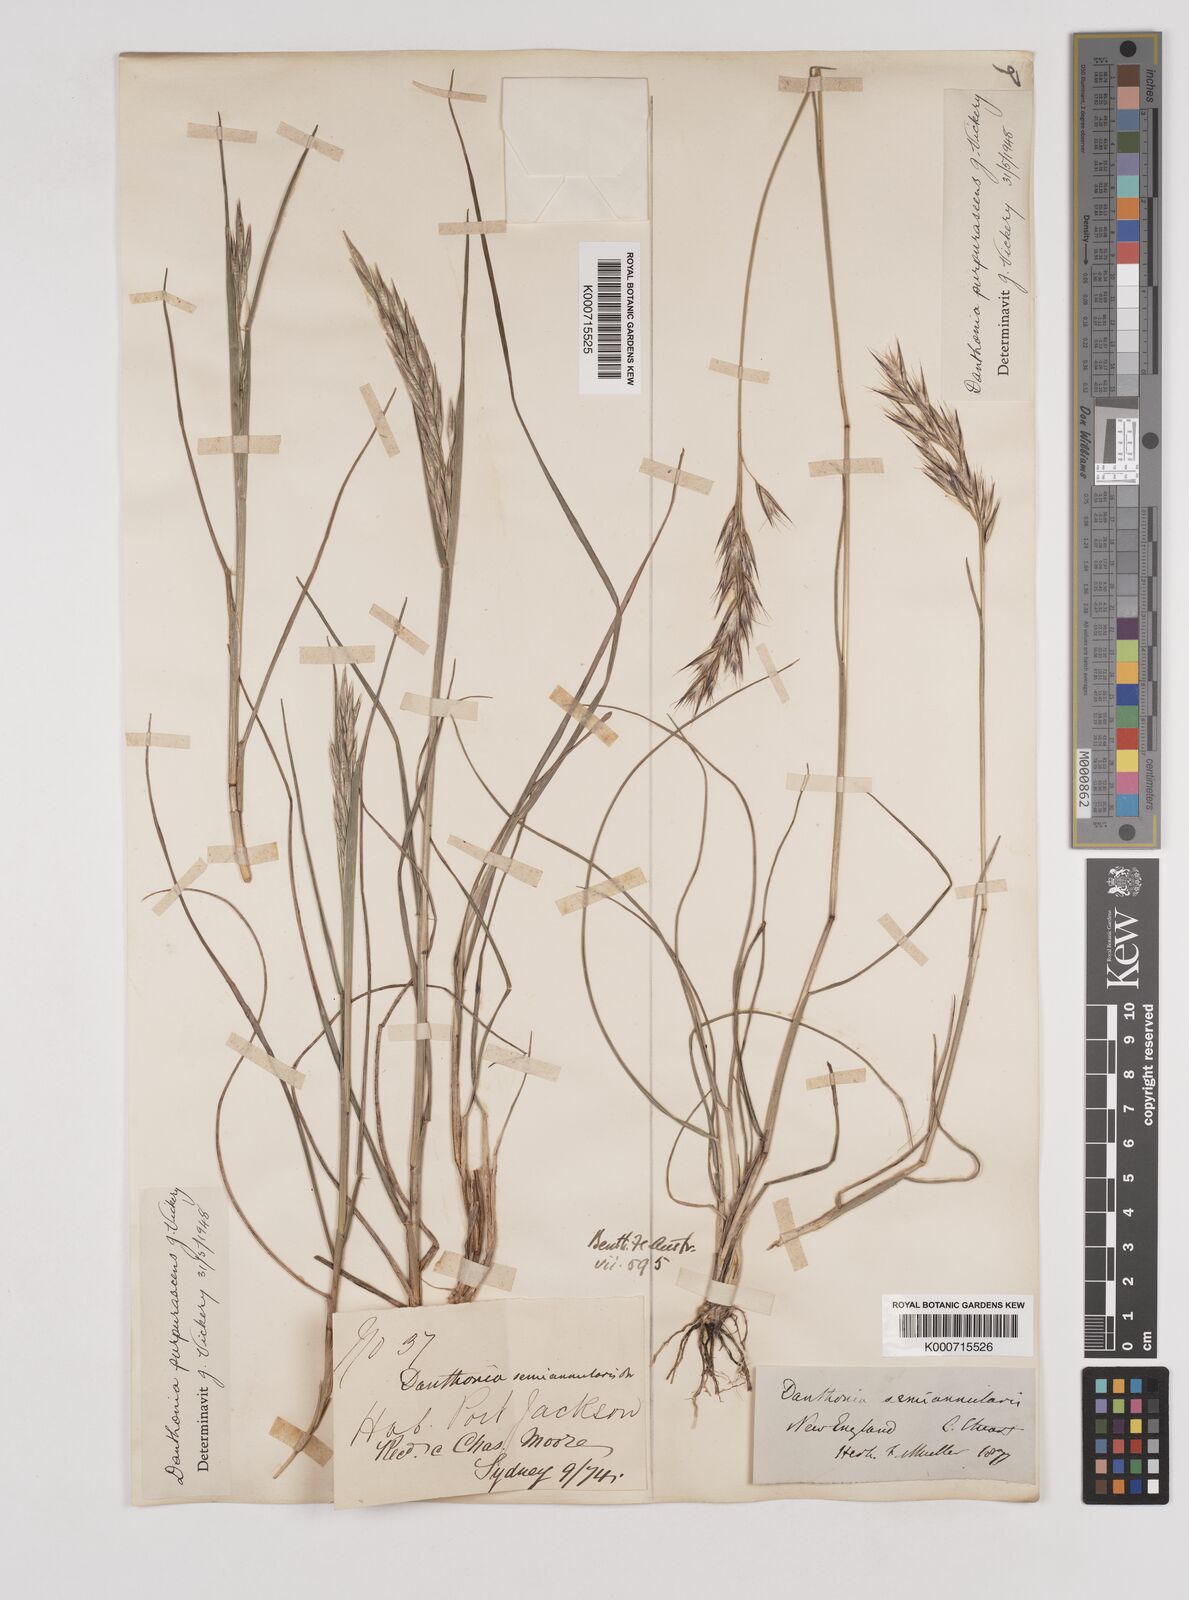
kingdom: Plantae
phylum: Tracheophyta
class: Liliopsida
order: Poales
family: Poaceae
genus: Rytidosperma
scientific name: Rytidosperma tenuius
